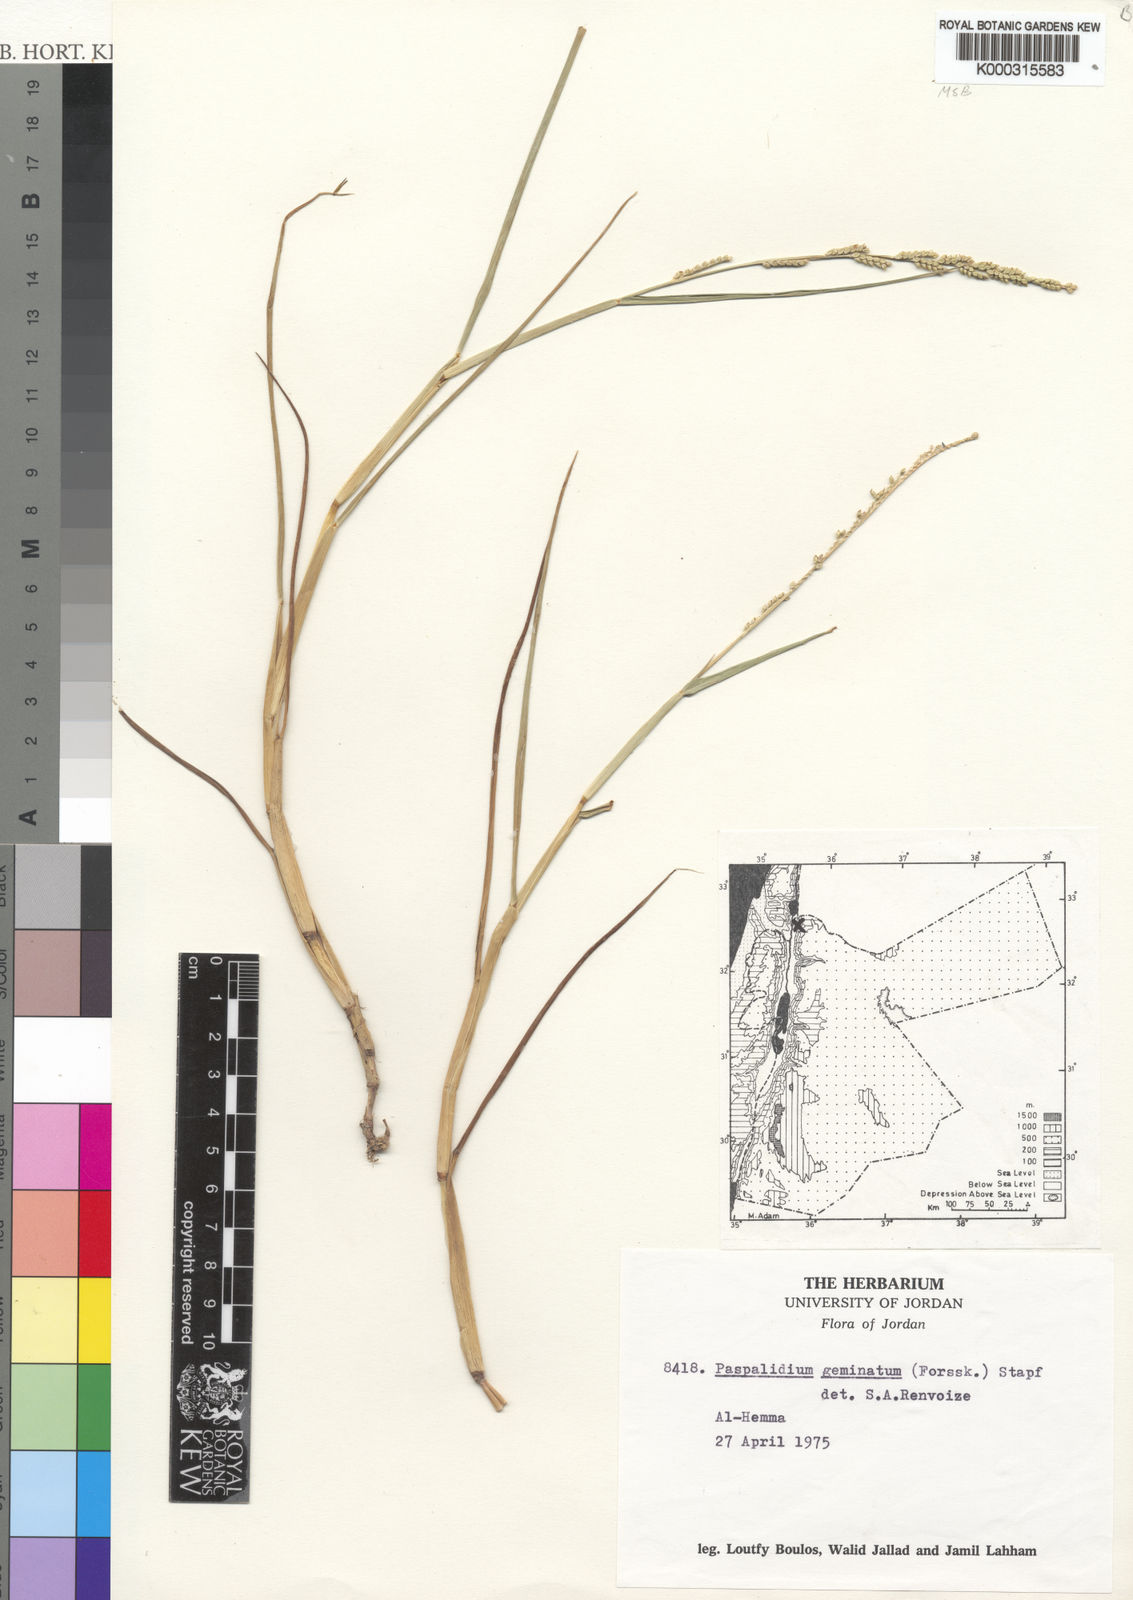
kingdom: Plantae
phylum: Tracheophyta
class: Liliopsida
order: Poales
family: Poaceae
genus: Setaria
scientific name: Setaria geminata
